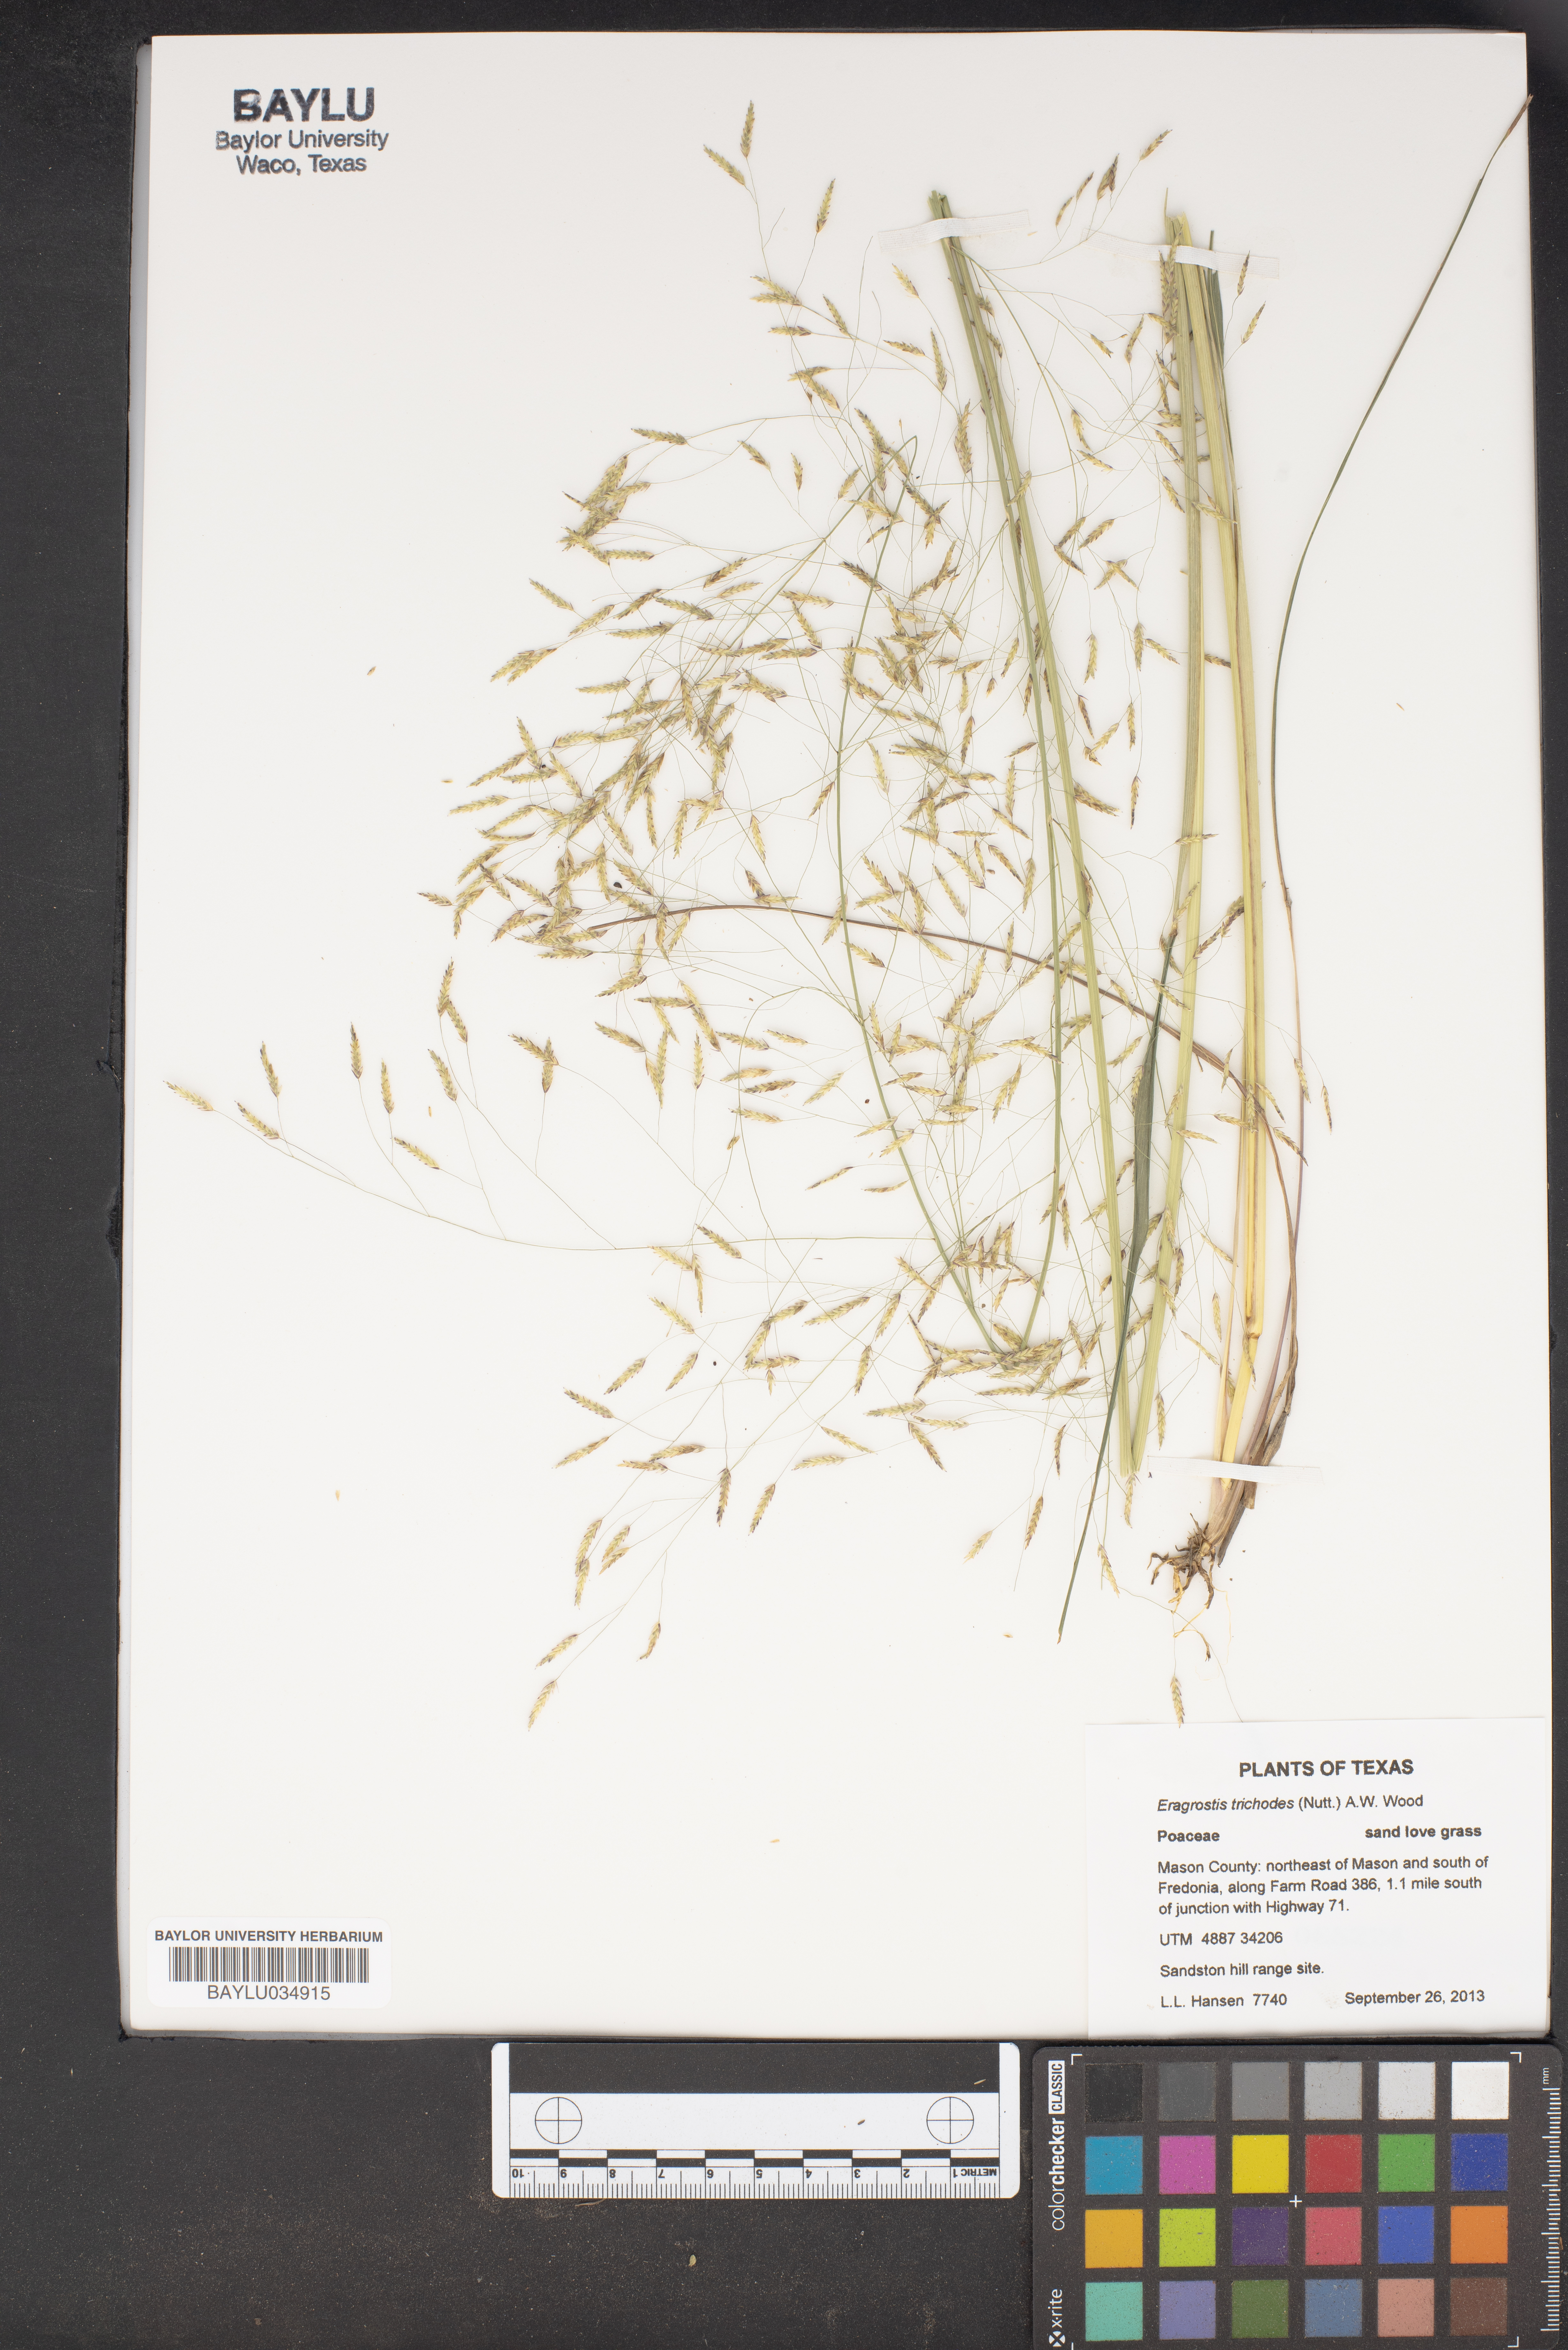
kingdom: Plantae
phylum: Tracheophyta
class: Liliopsida
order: Poales
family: Poaceae
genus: Eragrostis
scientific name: Eragrostis trichodes
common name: Sand love grass
